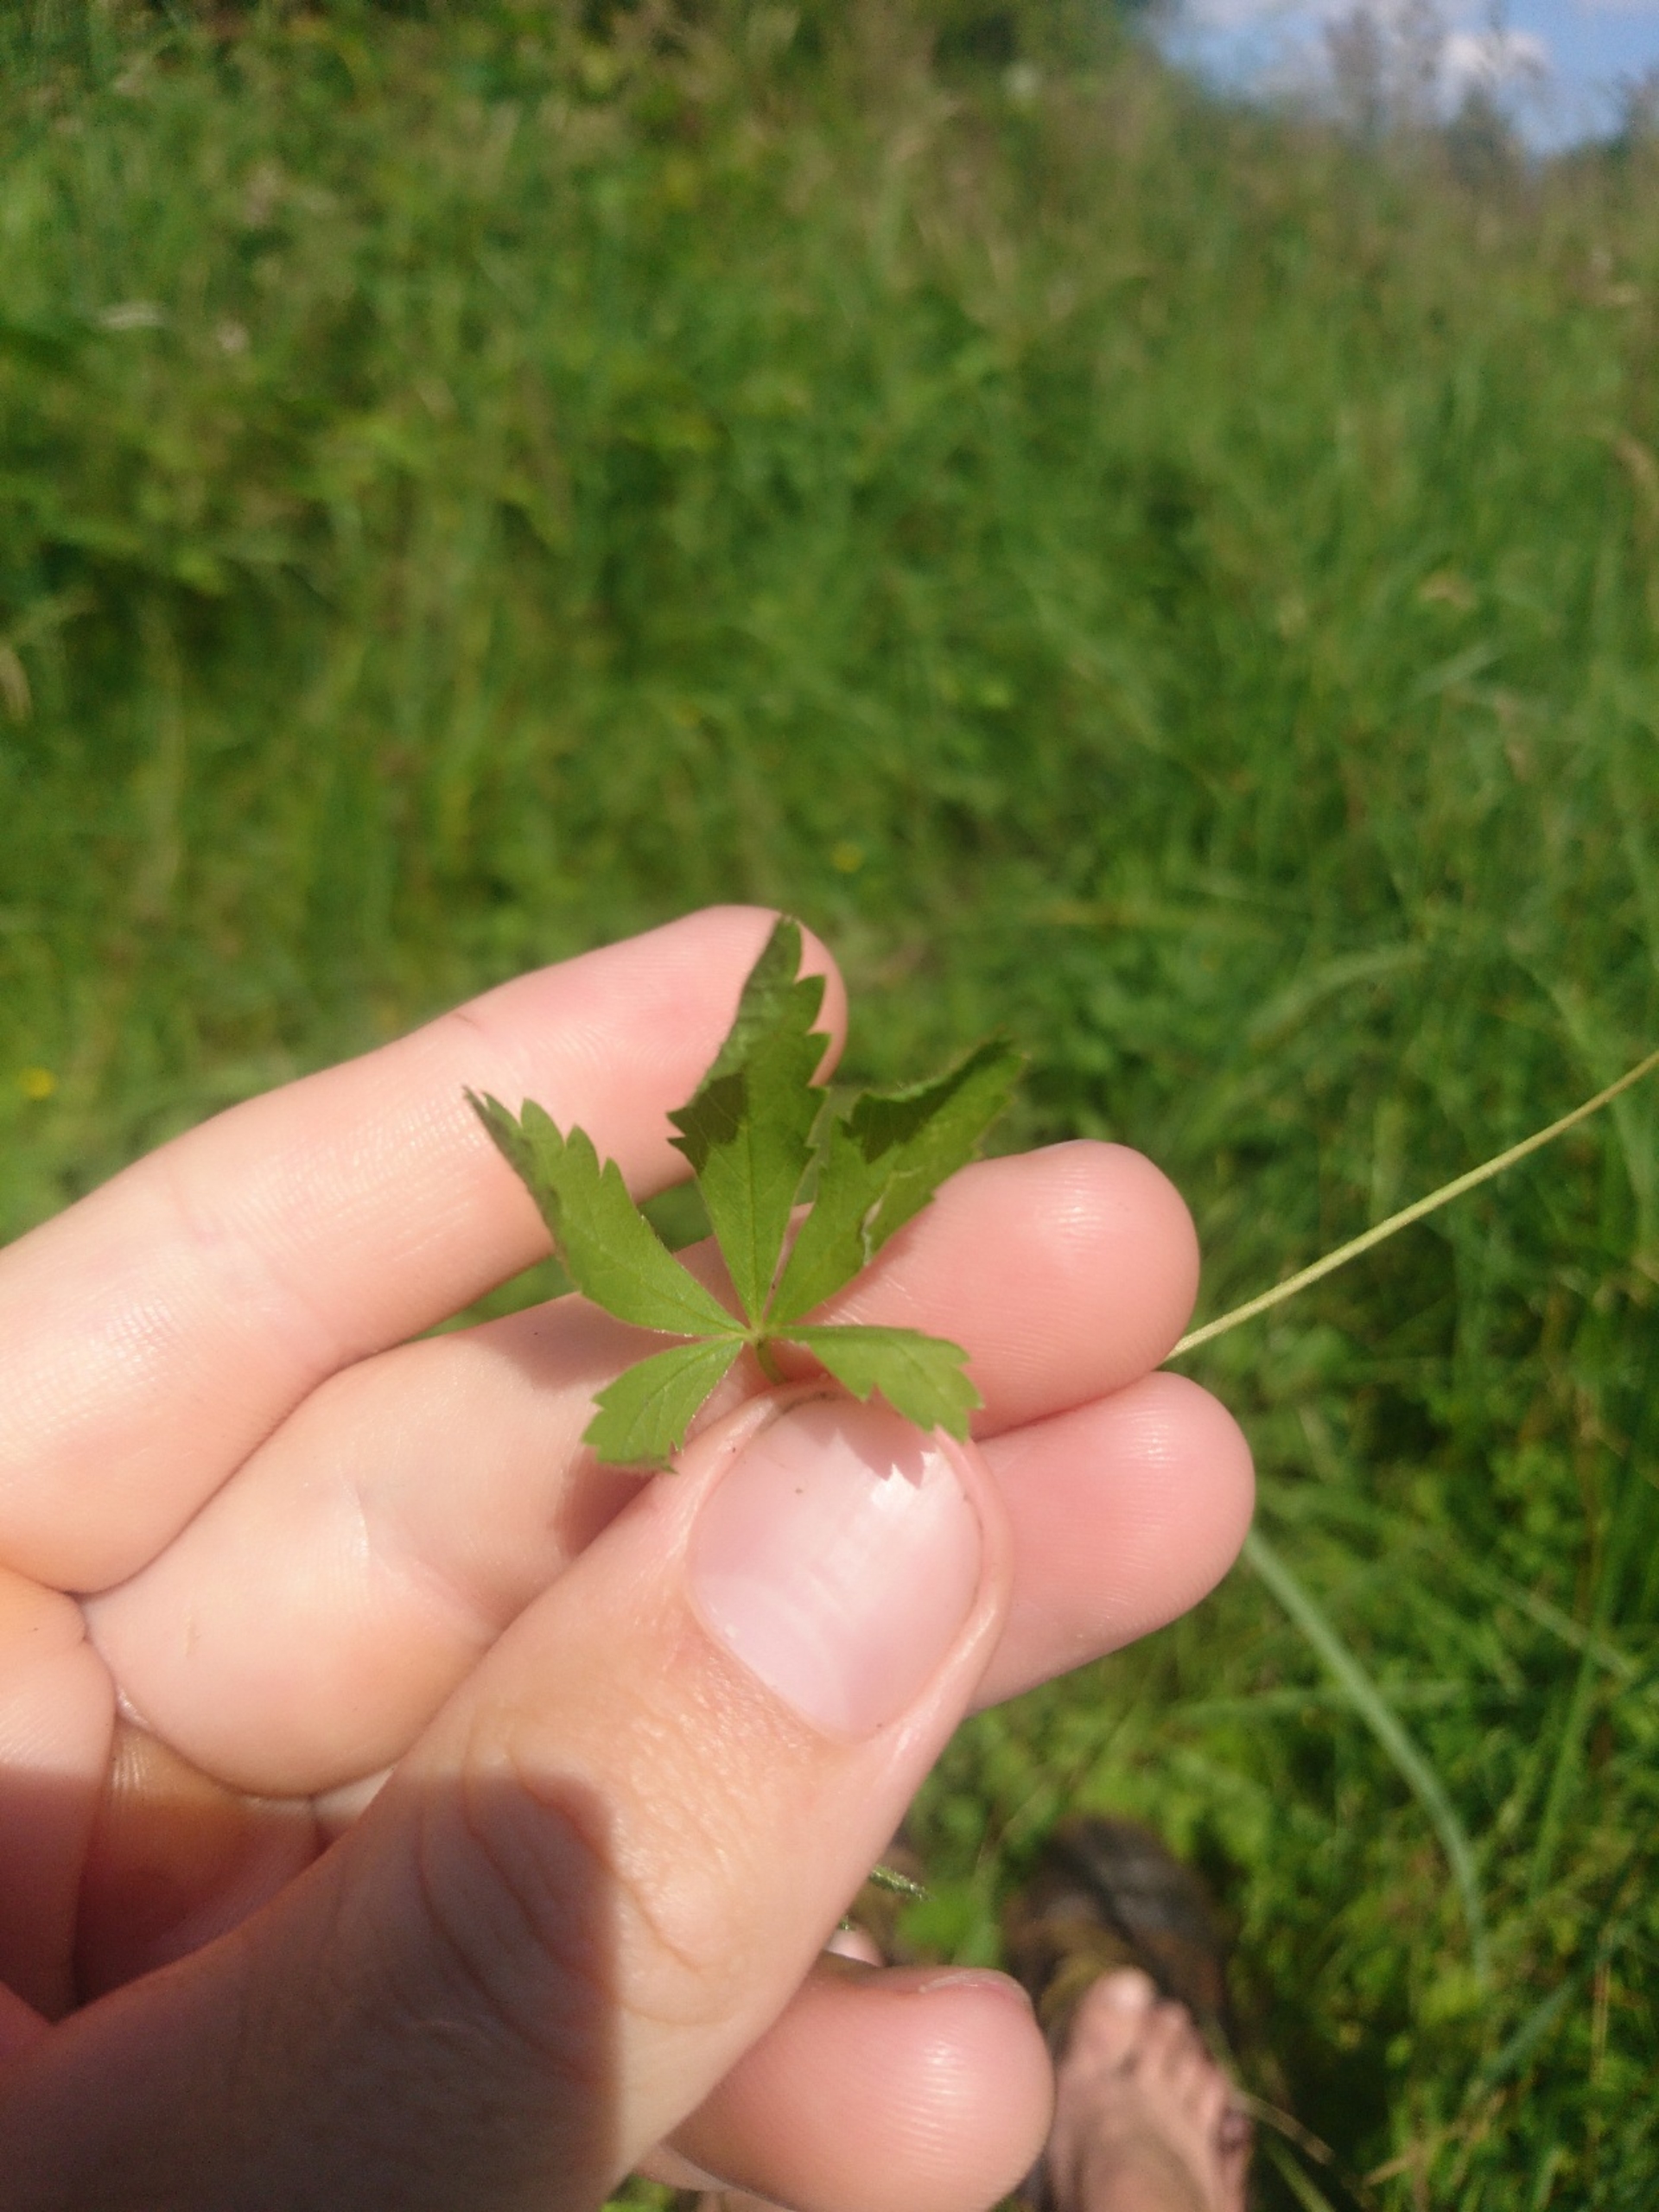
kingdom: Plantae
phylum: Tracheophyta
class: Magnoliopsida
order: Rosales
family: Rosaceae
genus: Potentilla
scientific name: Potentilla reptans
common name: Krybende potentil
